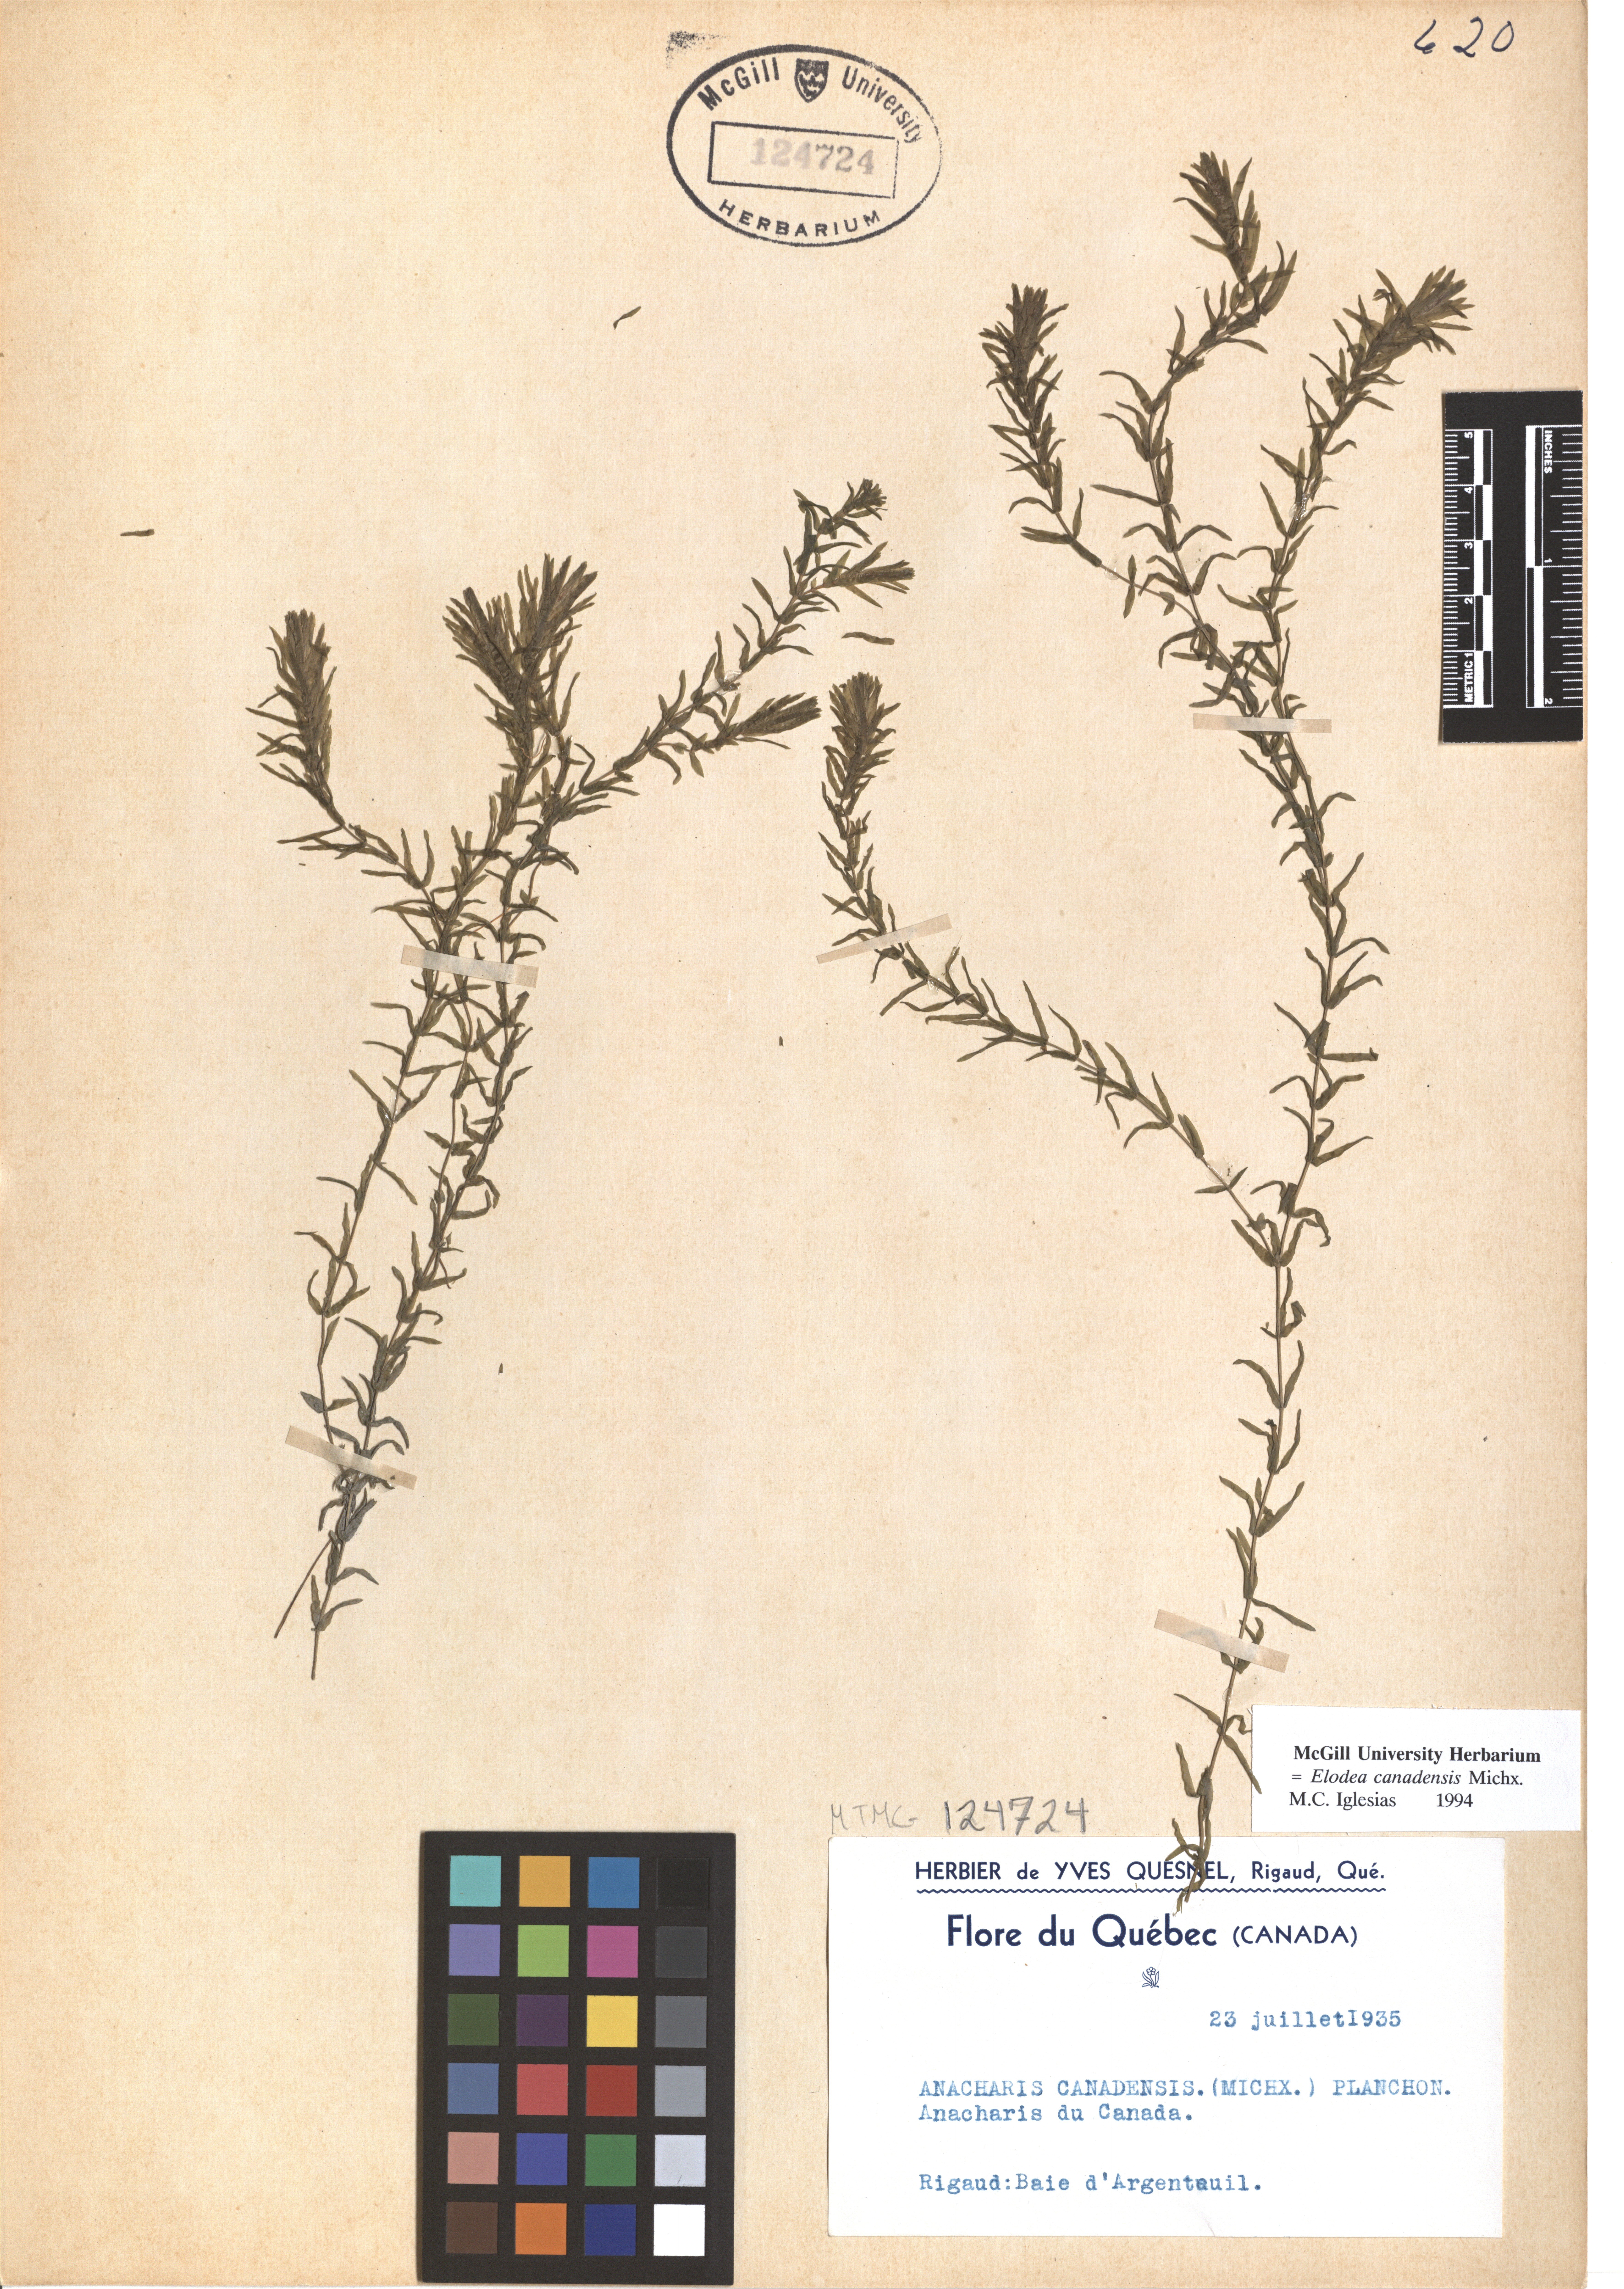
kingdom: Plantae
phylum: Tracheophyta
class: Liliopsida
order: Alismatales
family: Hydrocharitaceae
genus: Elodea
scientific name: Elodea canadensis
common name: Canadian waterweed
